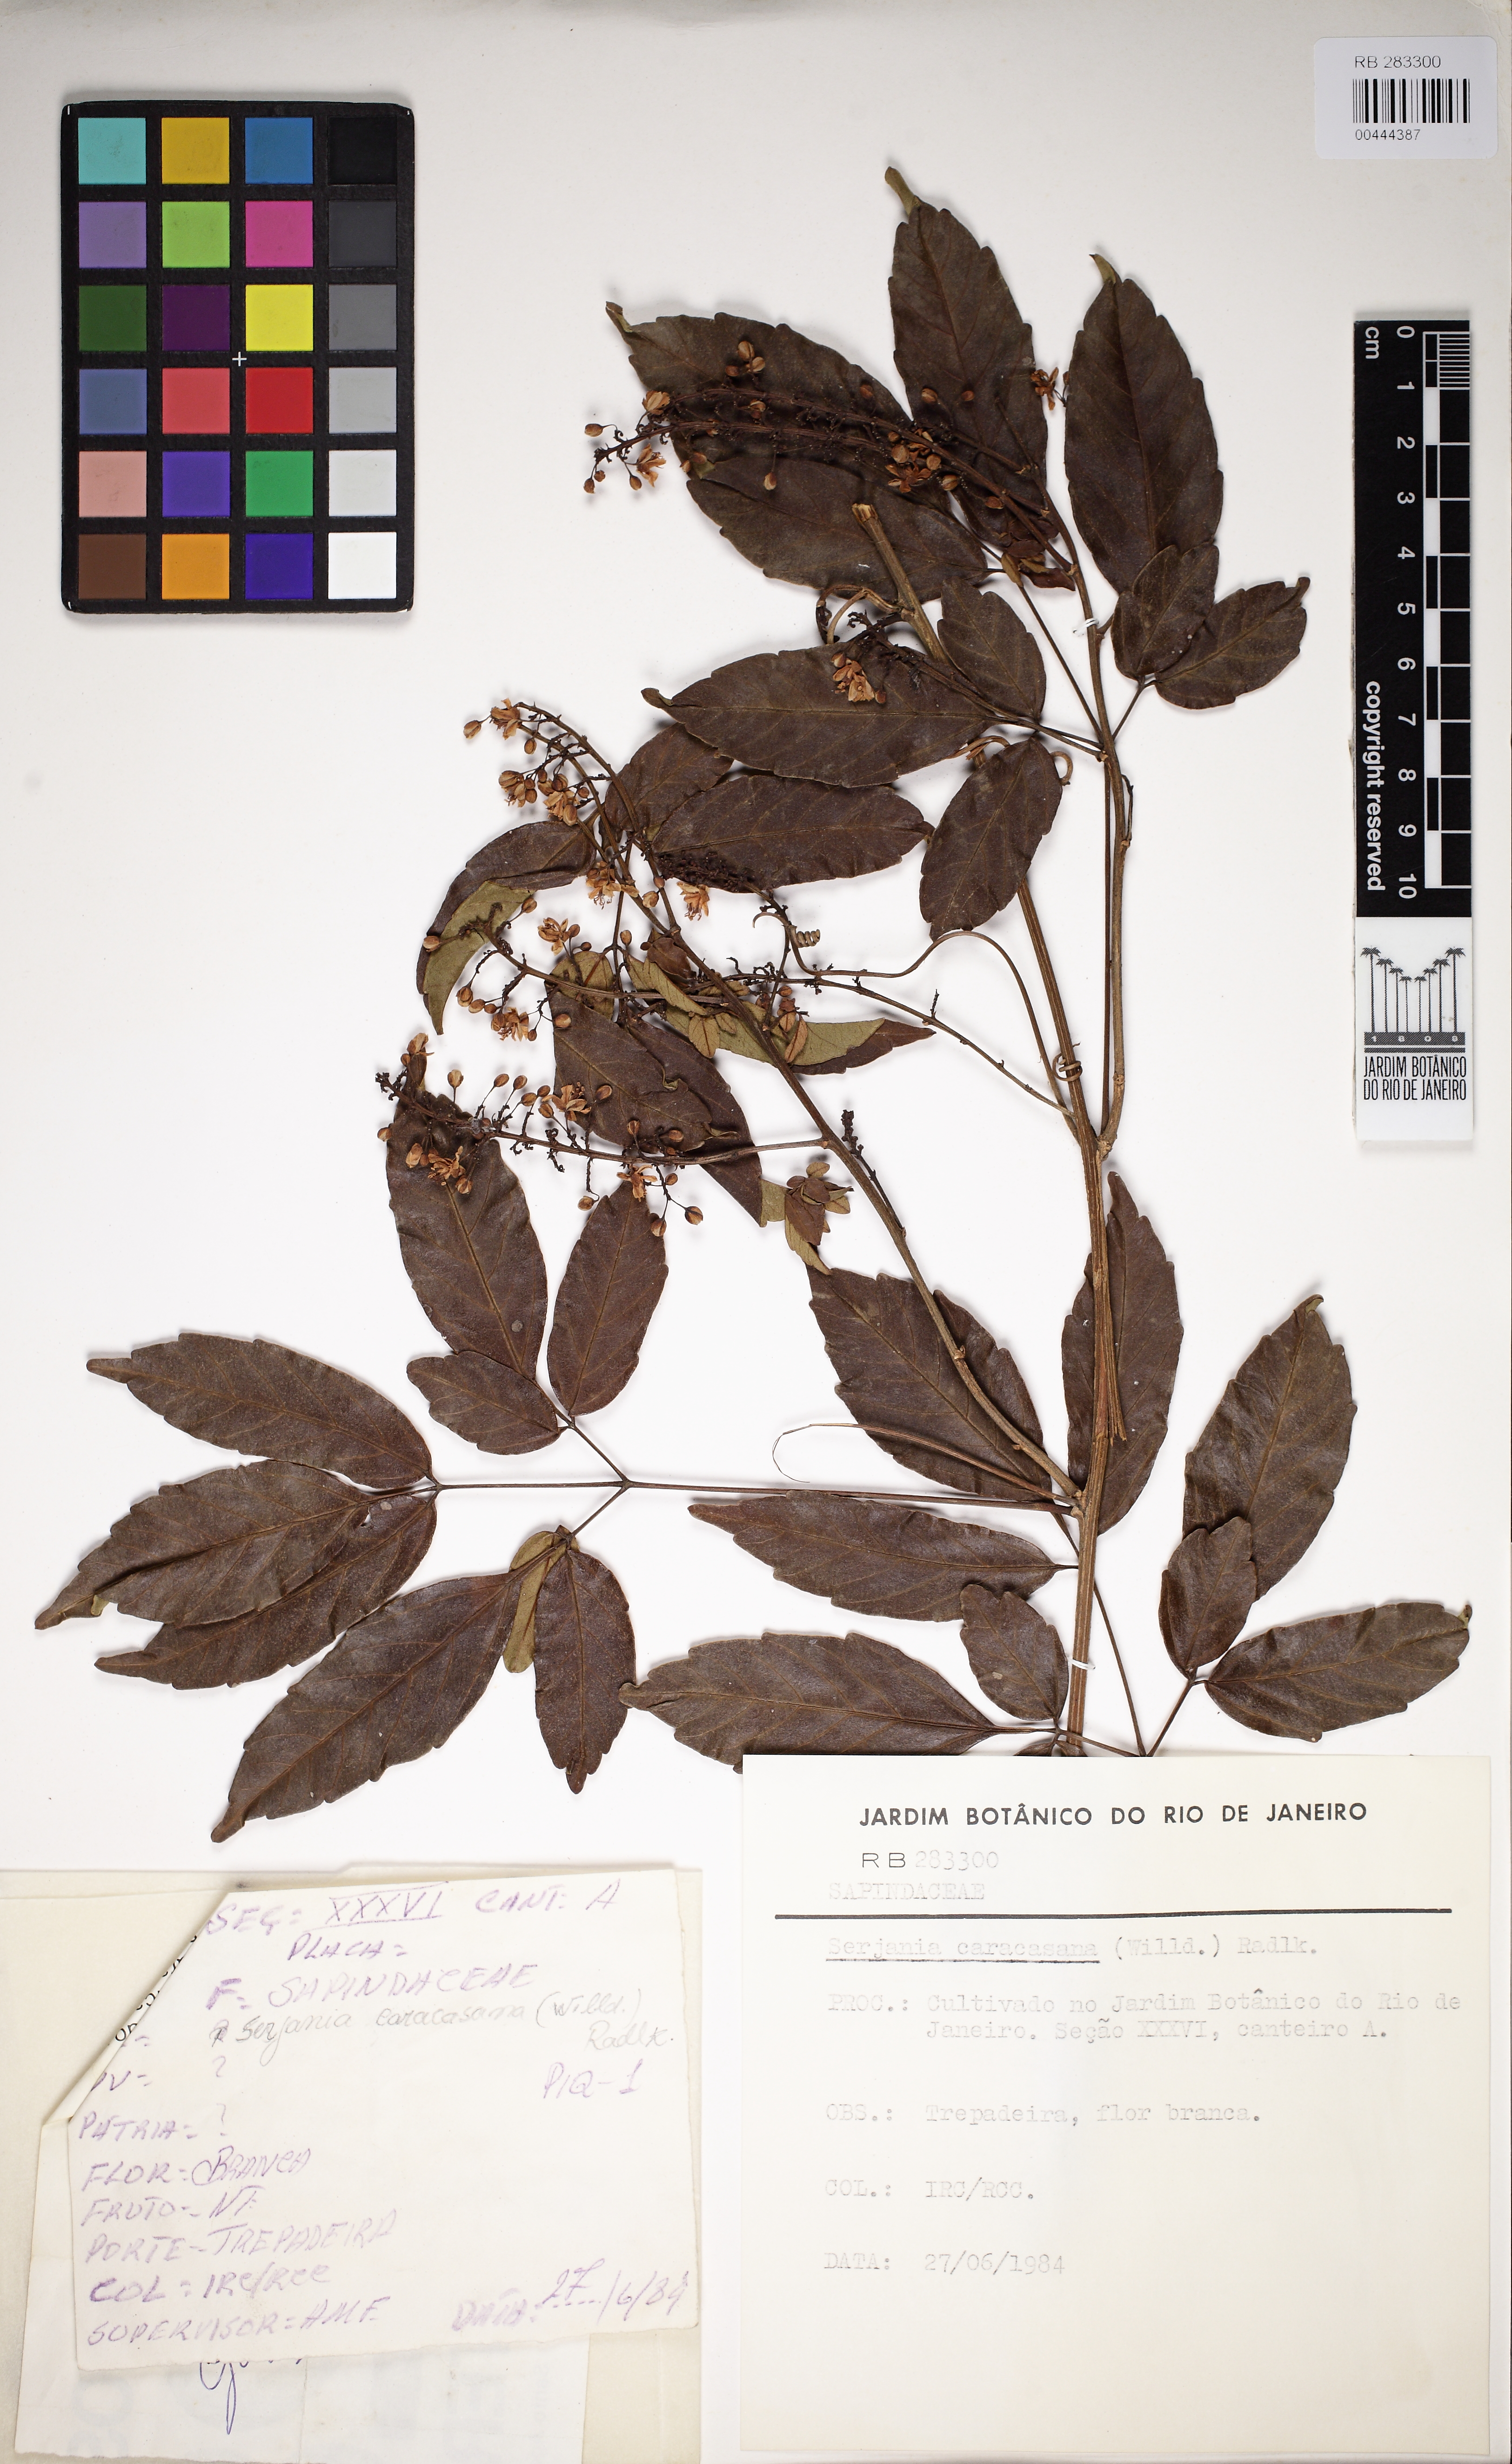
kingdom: Plantae
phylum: Tracheophyta
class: Magnoliopsida
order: Sapindales
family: Sapindaceae
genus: Serjania
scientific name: Serjania caracasana
